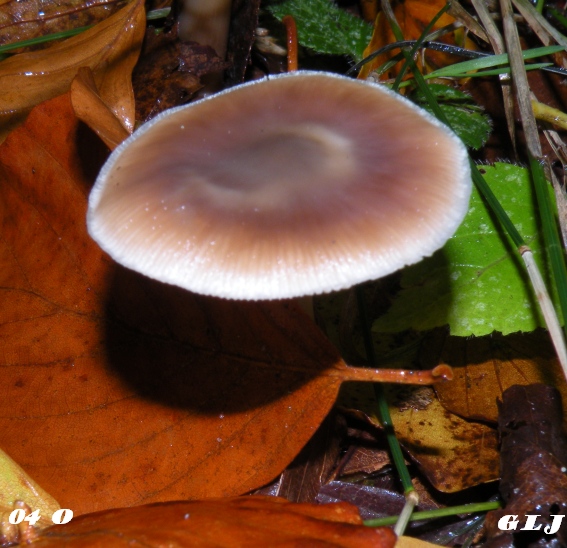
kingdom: Fungi
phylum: Basidiomycota
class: Agaricomycetes
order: Agaricales
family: Omphalotaceae
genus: Rhodocollybia
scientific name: Rhodocollybia asema
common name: horngrå fladhat
